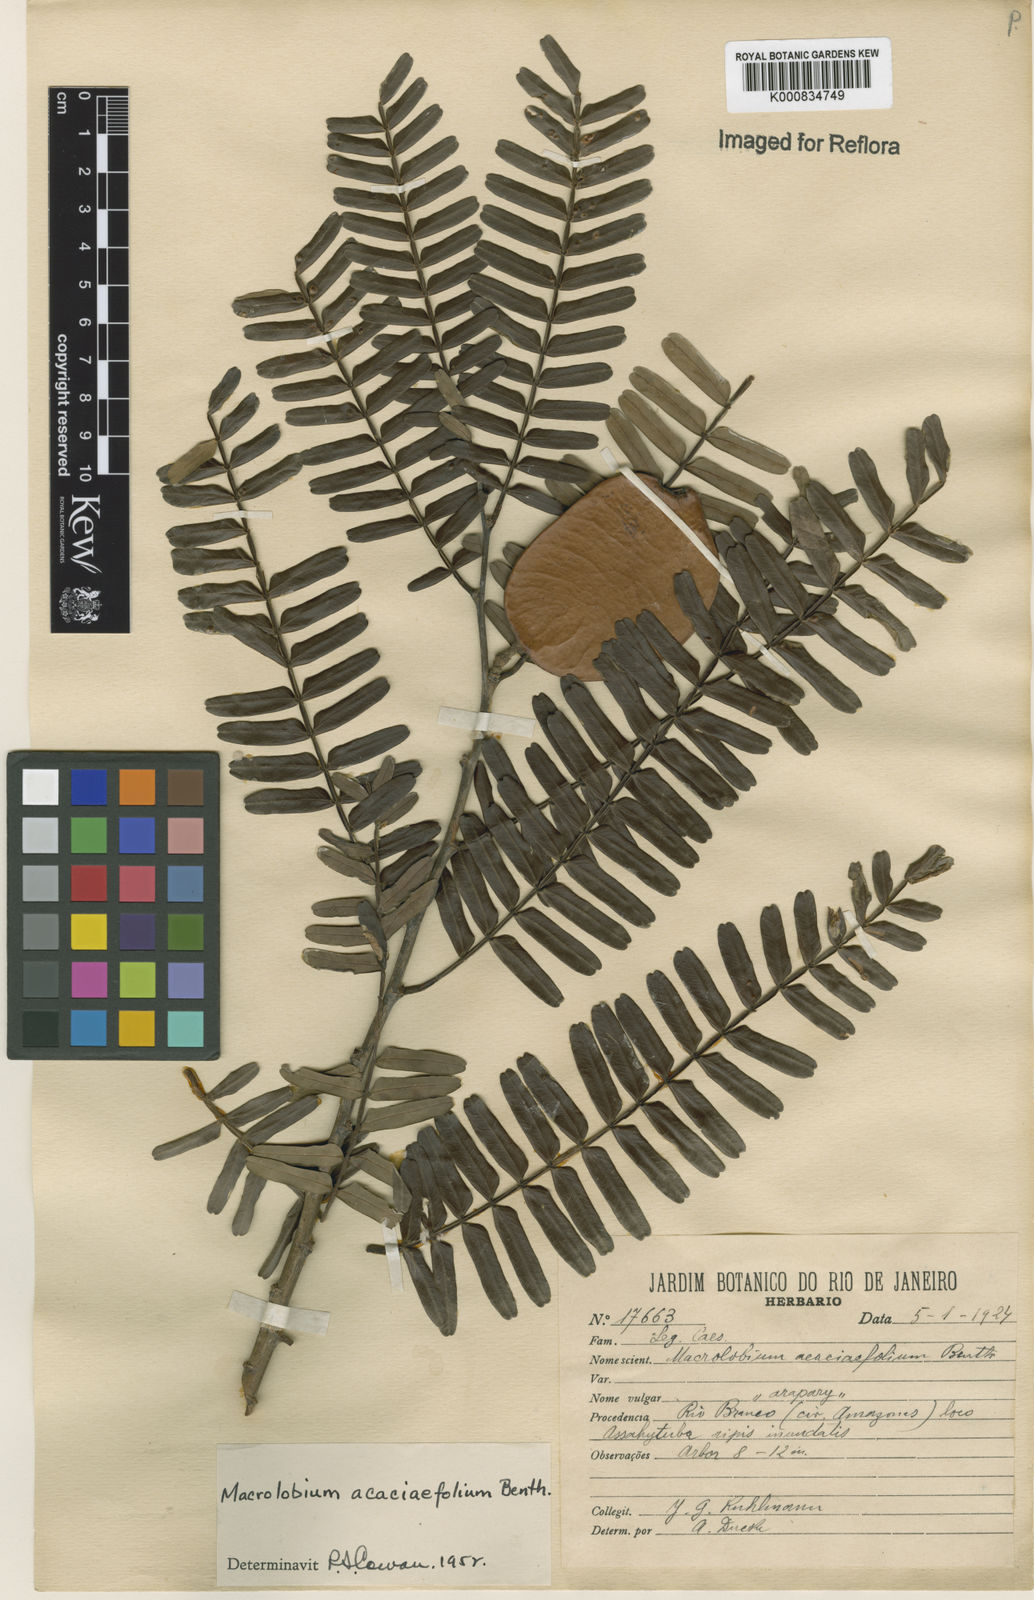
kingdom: Plantae
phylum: Tracheophyta
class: Magnoliopsida
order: Fabales
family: Fabaceae
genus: Macrolobium
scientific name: Macrolobium acaciifolium
